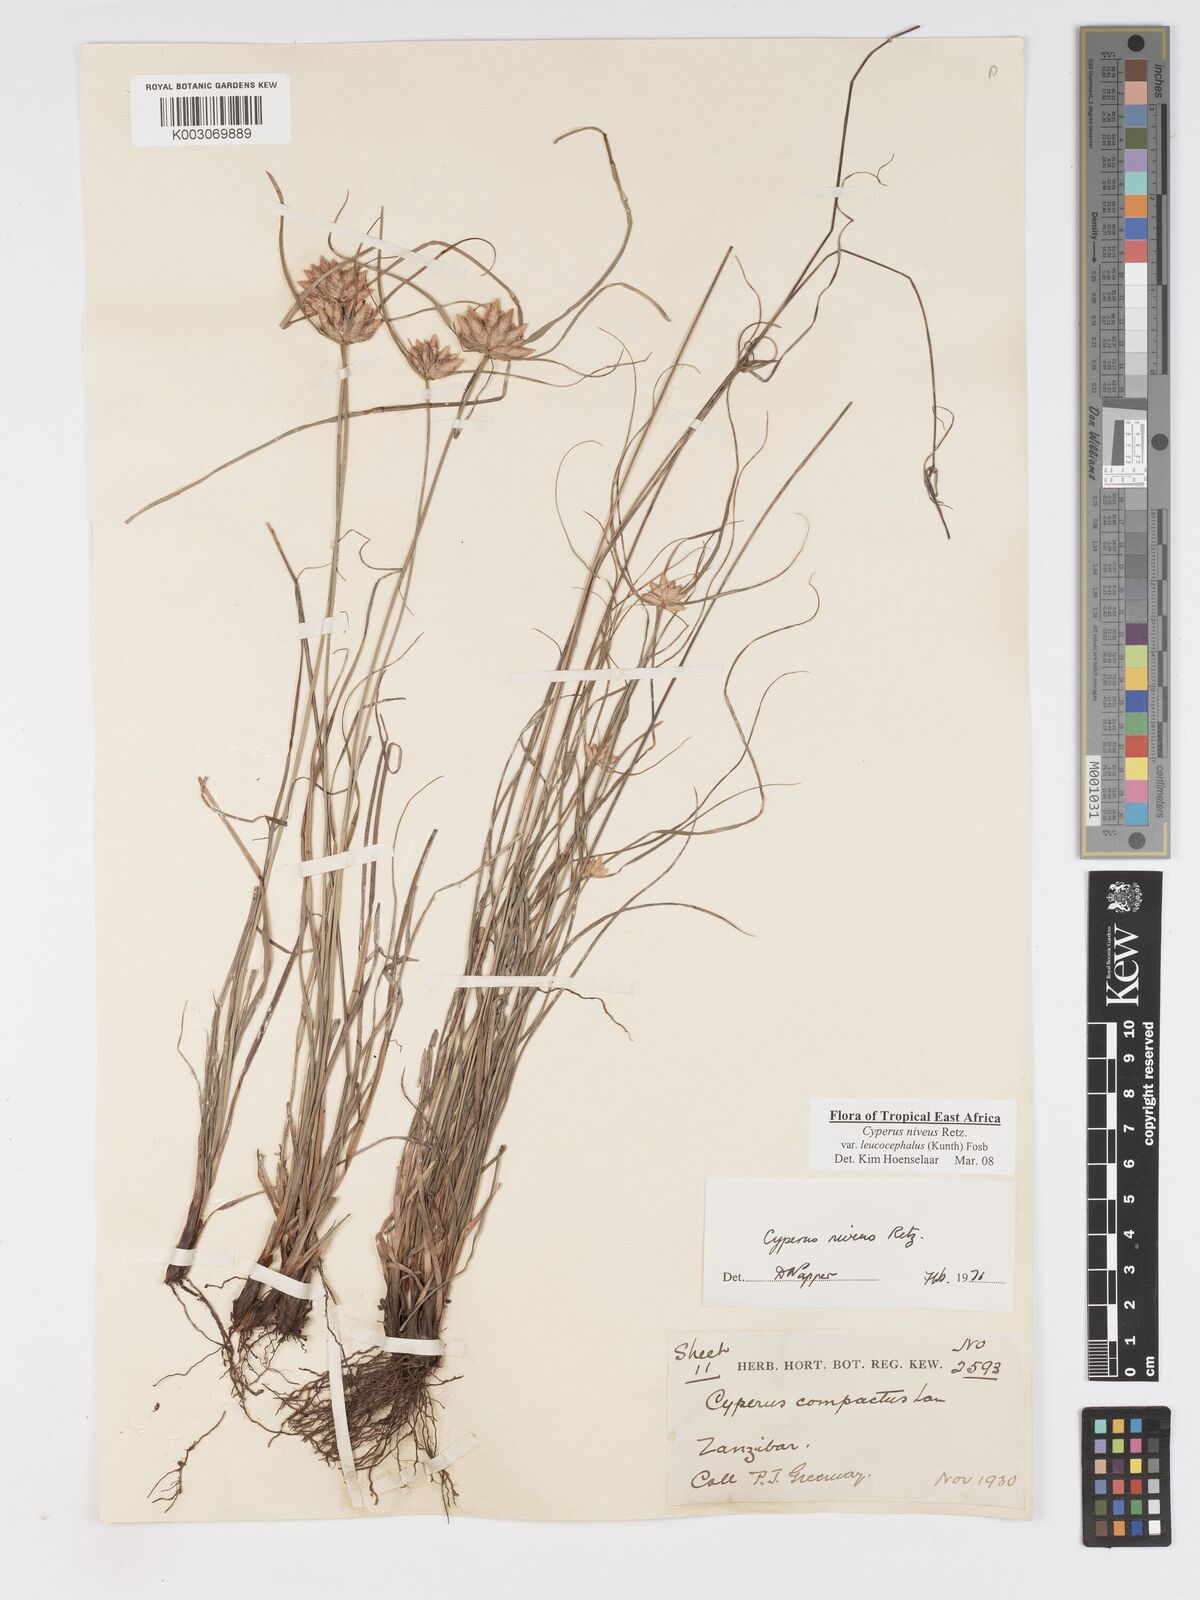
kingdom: Plantae
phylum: Tracheophyta
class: Liliopsida
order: Poales
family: Cyperaceae
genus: Cyperus
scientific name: Cyperus niveus
